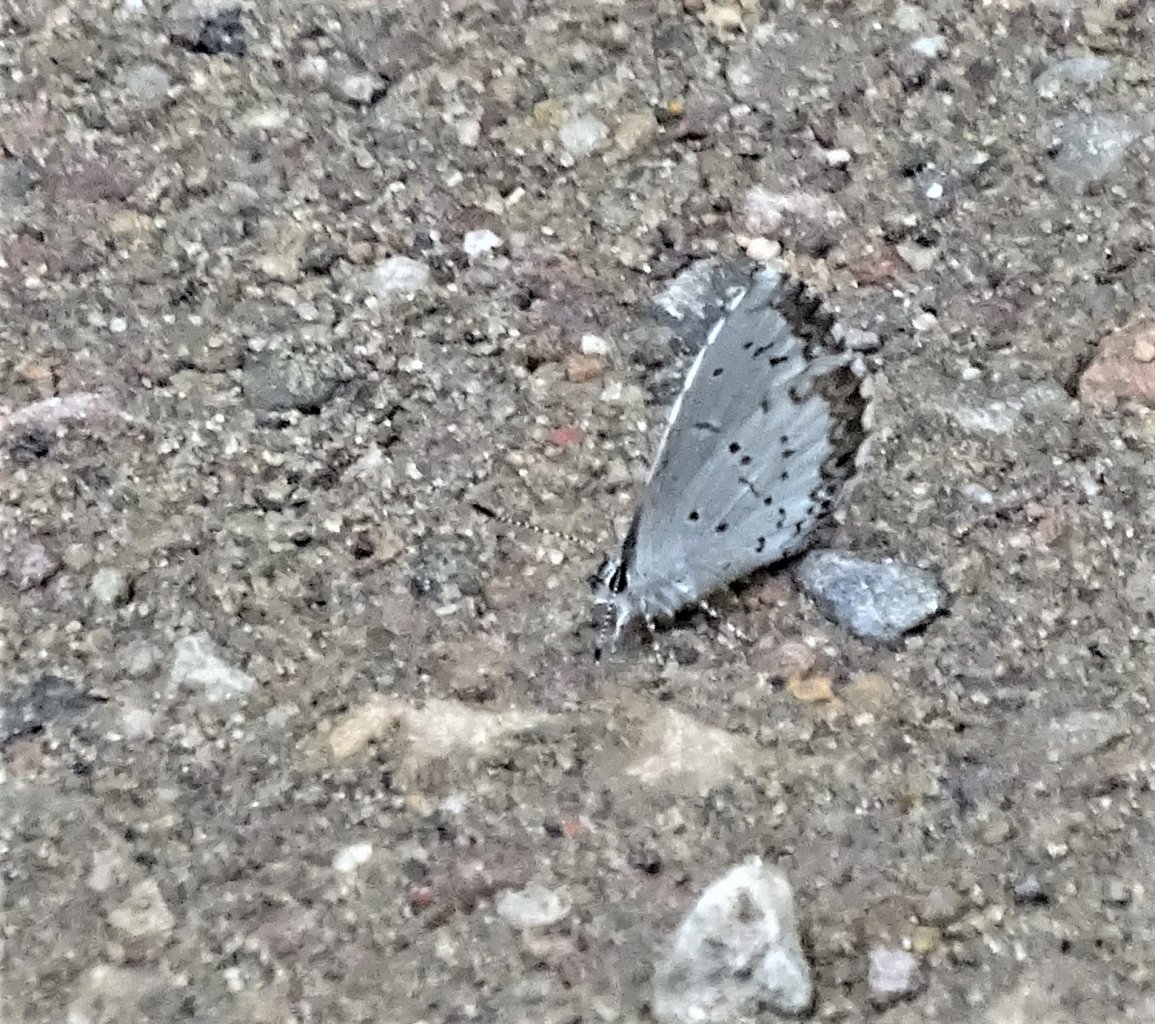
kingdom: Animalia
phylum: Arthropoda
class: Insecta
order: Lepidoptera
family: Lycaenidae
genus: Celastrina
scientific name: Celastrina lucia
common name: Northern Spring Azure
